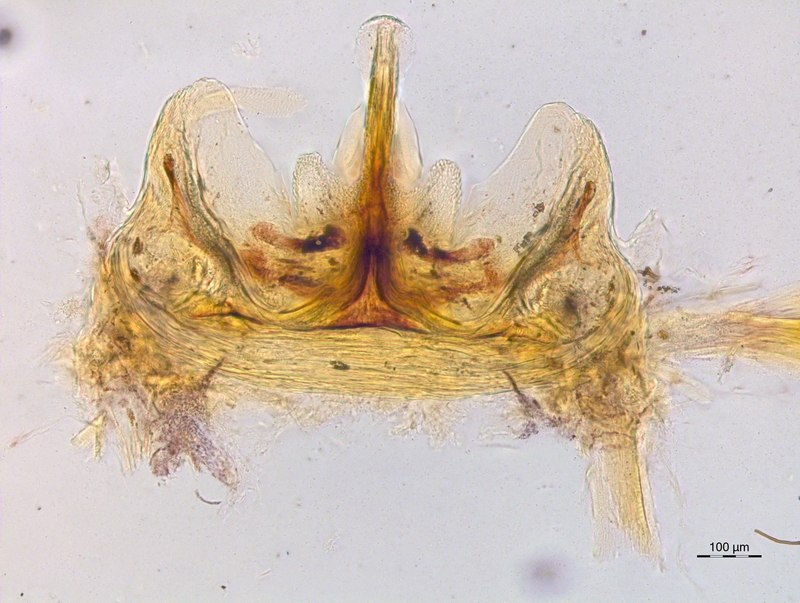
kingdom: Animalia
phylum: Arthropoda
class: Diplopoda
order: Chordeumatida
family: Craspedosomatidae
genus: Craspedosoma
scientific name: Craspedosoma furculigerum
